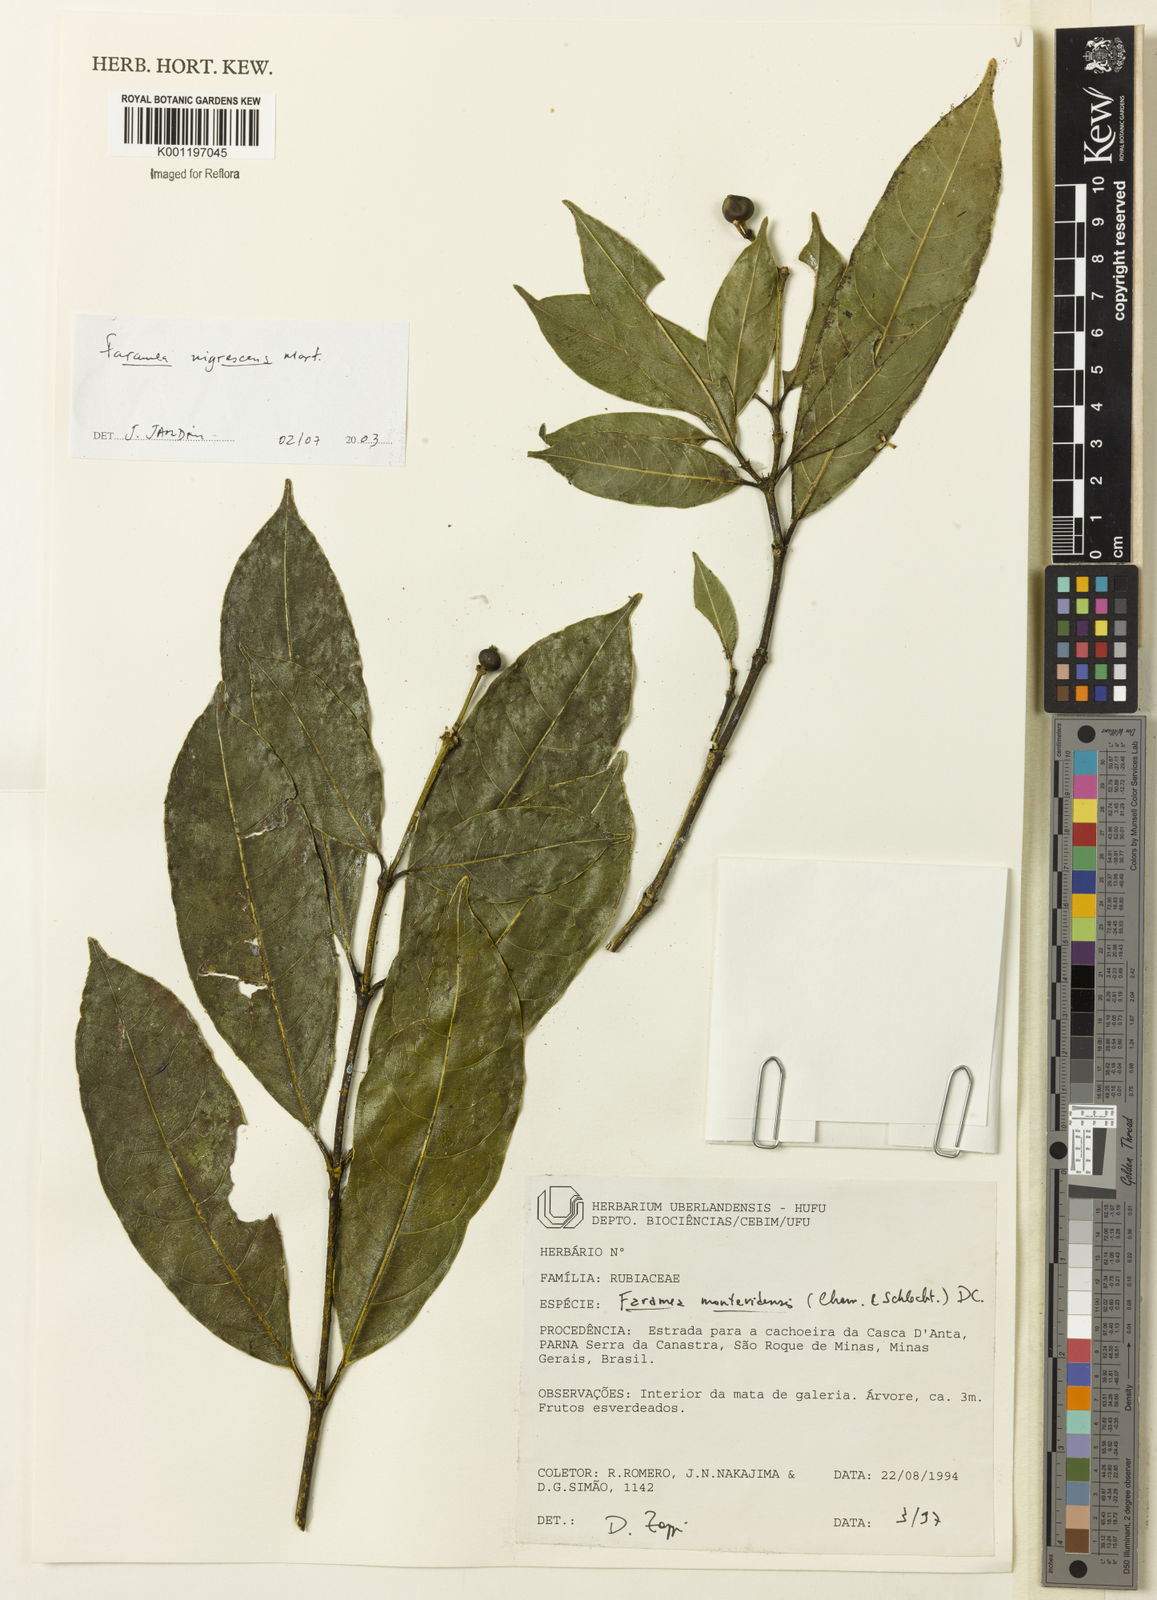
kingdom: Plantae
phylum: Tracheophyta
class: Magnoliopsida
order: Gentianales
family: Rubiaceae
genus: Faramea
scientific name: Faramea nigrescens
